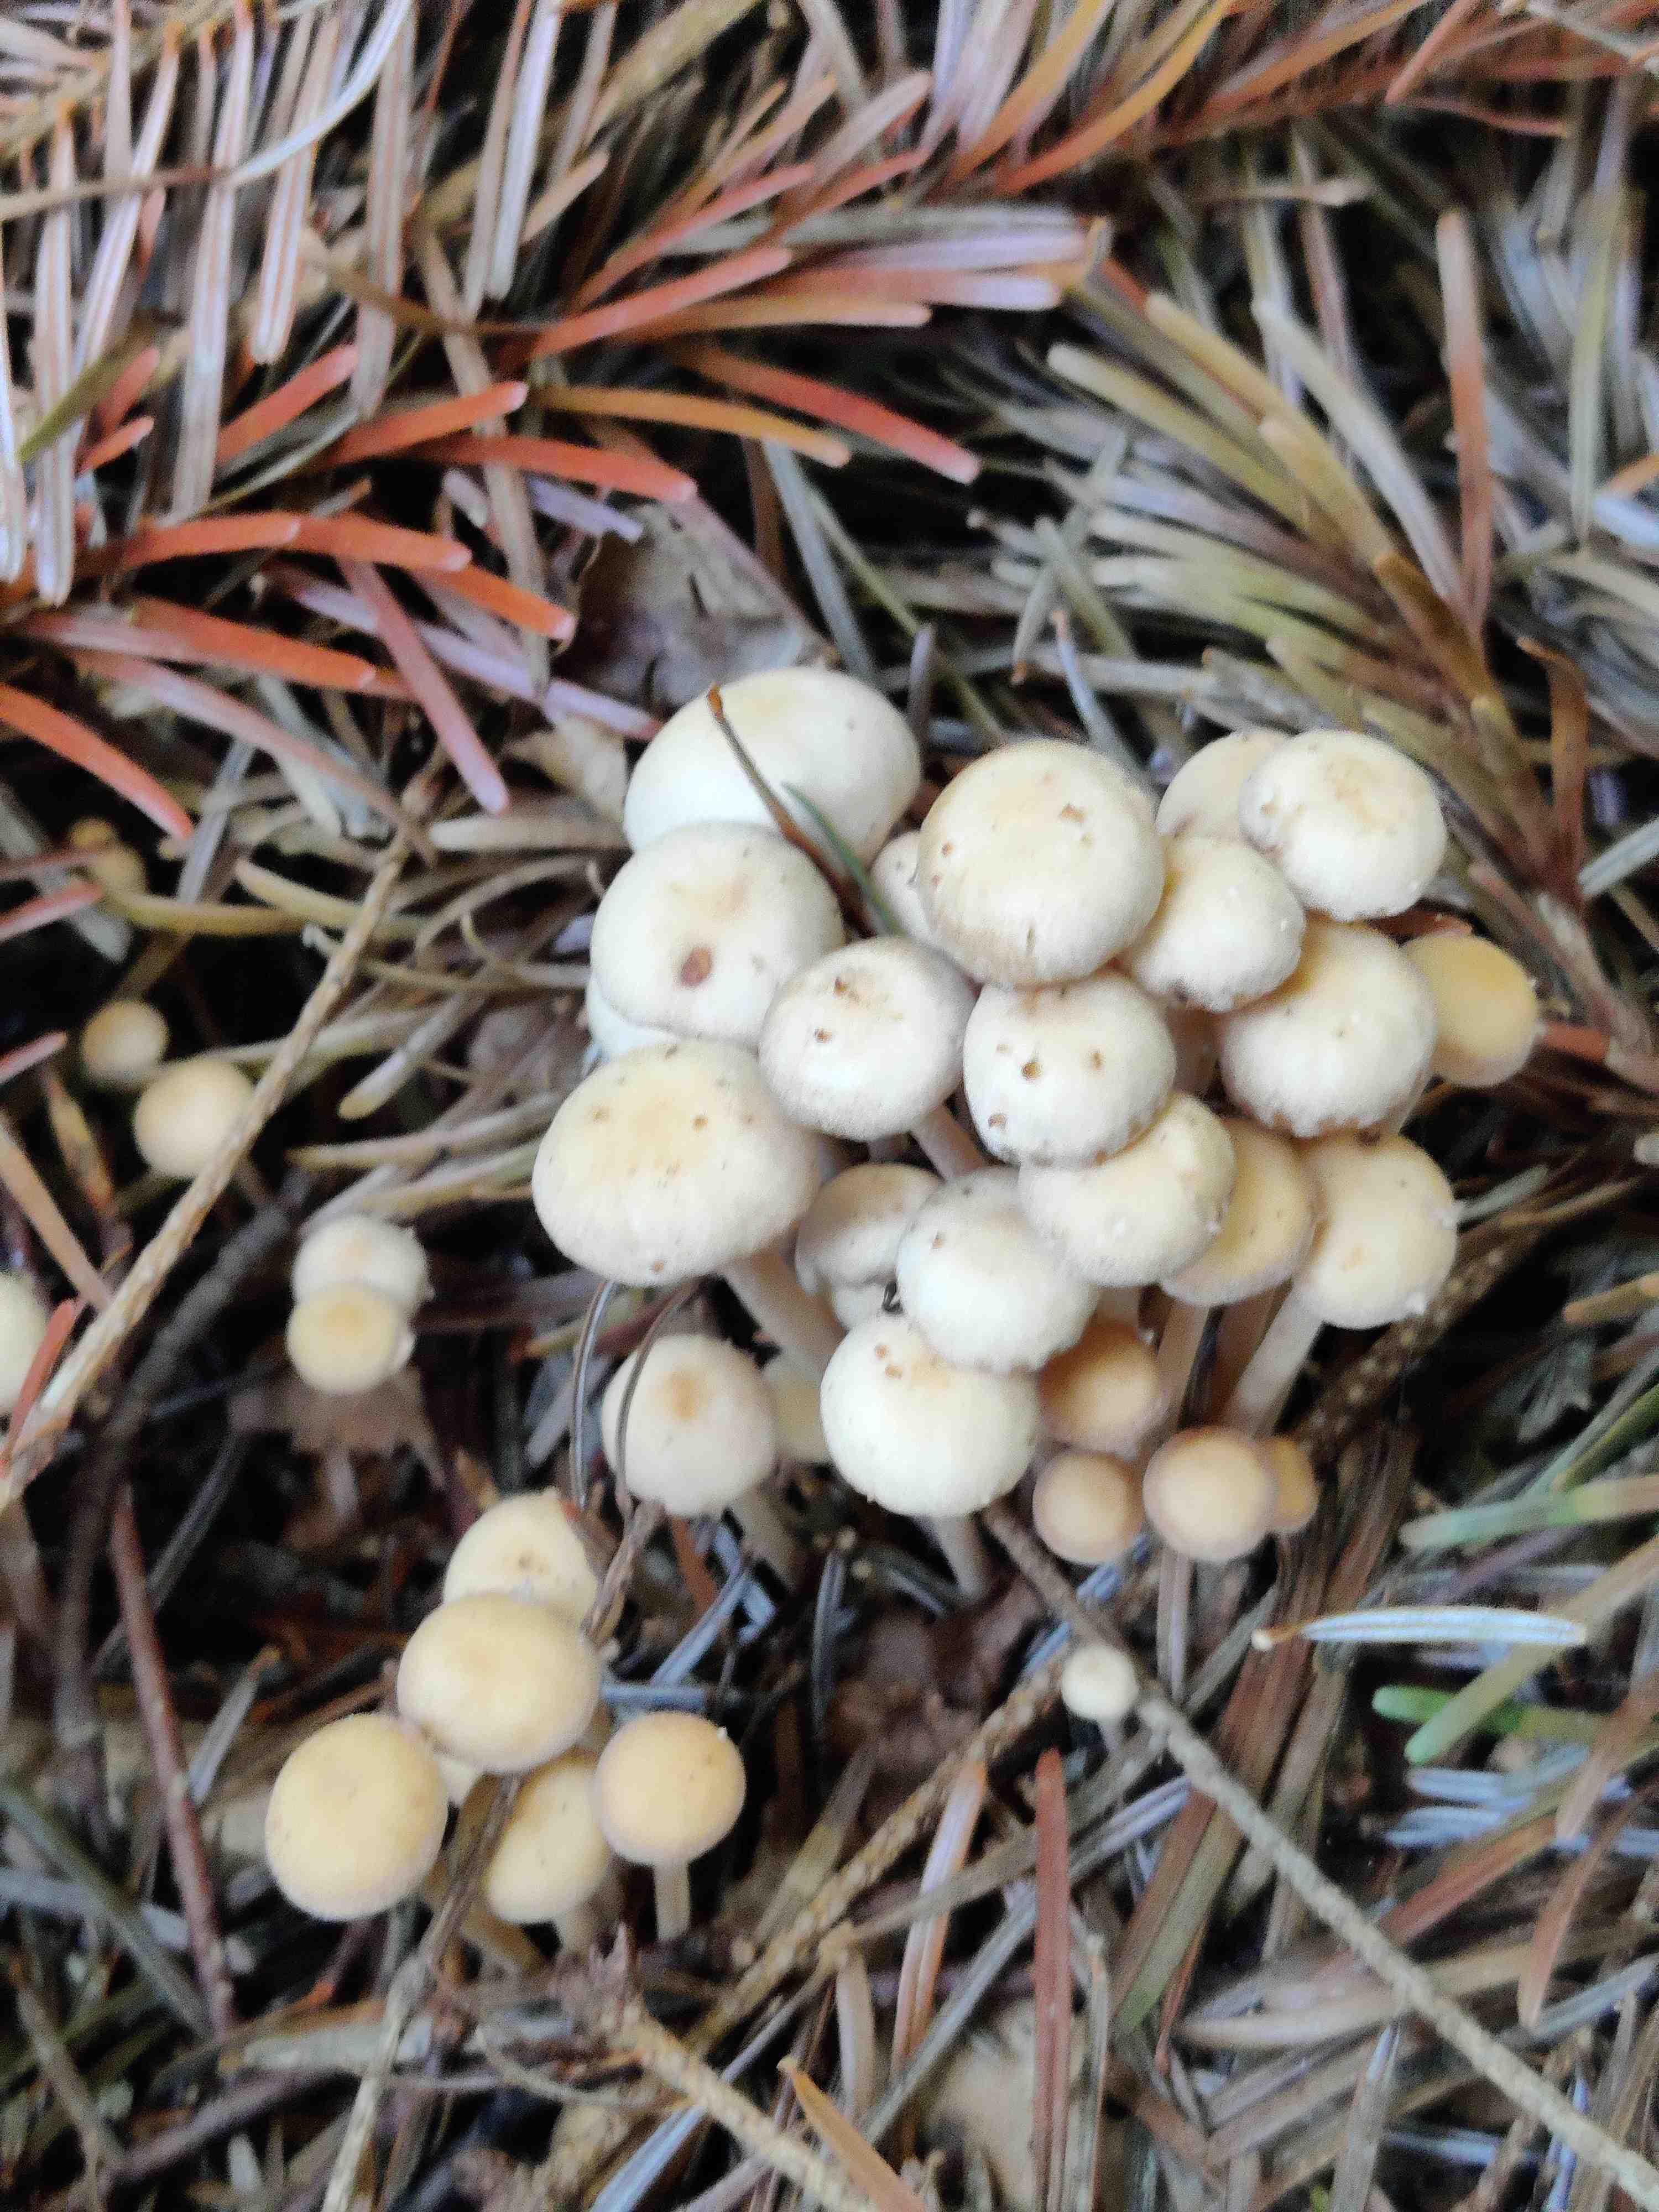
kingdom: Fungi
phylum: Basidiomycota
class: Agaricomycetes
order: Agaricales
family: Omphalotaceae
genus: Collybiopsis
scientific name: Collybiopsis confluens
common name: knippe-fladhat
